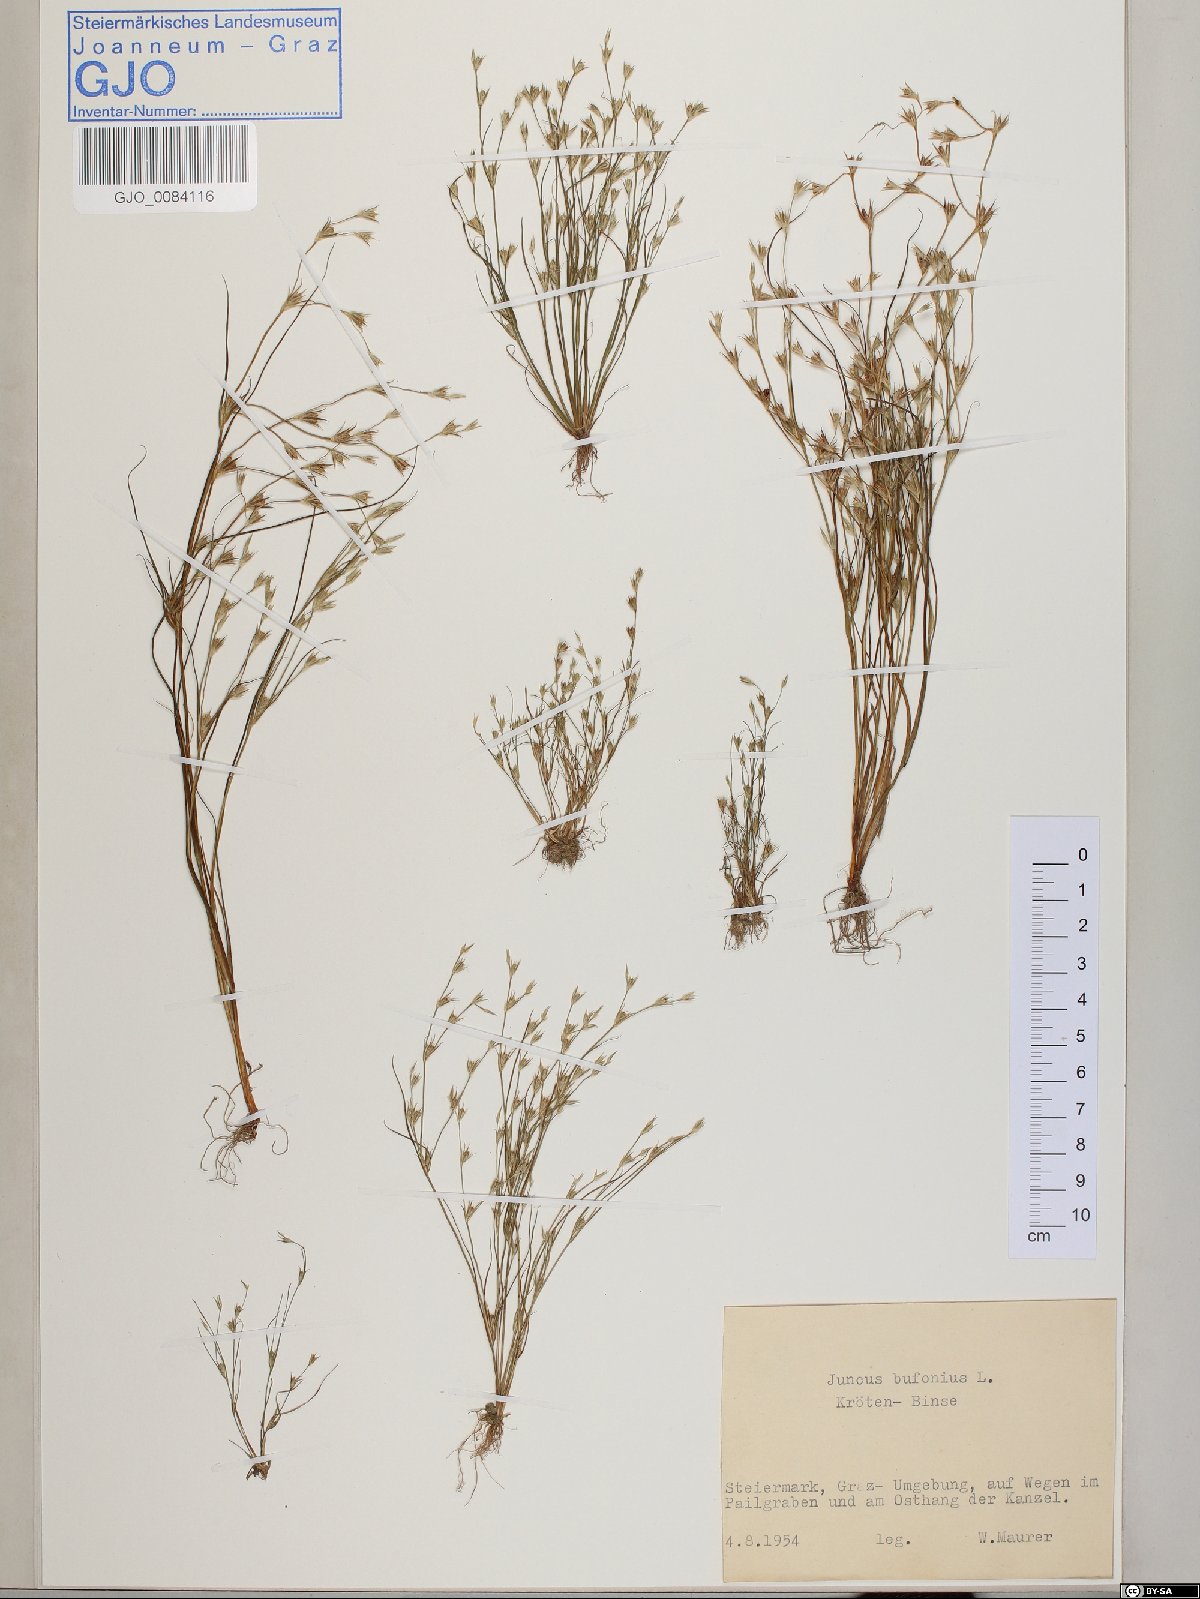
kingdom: Plantae
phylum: Tracheophyta
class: Liliopsida
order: Poales
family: Juncaceae
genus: Juncus
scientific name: Juncus bufonius
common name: Toad rush
